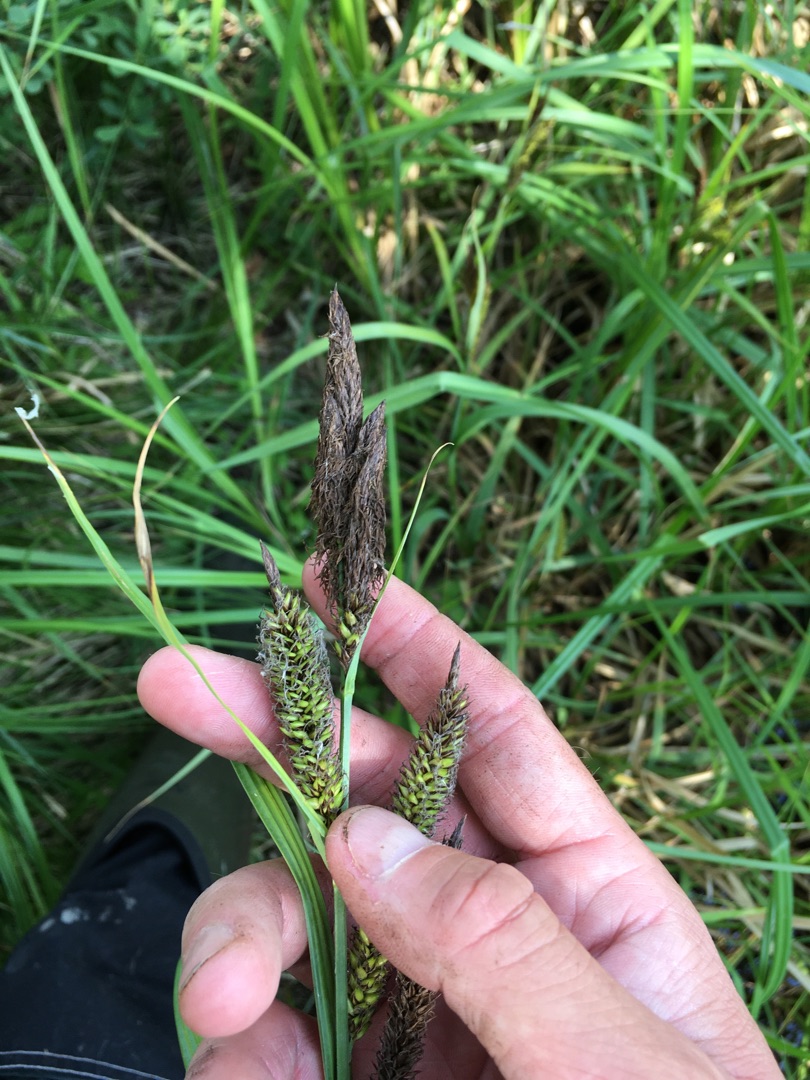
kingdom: Plantae
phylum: Tracheophyta
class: Liliopsida
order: Poales
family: Cyperaceae
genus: Carex
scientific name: Carex riparia
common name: Tykakset star
